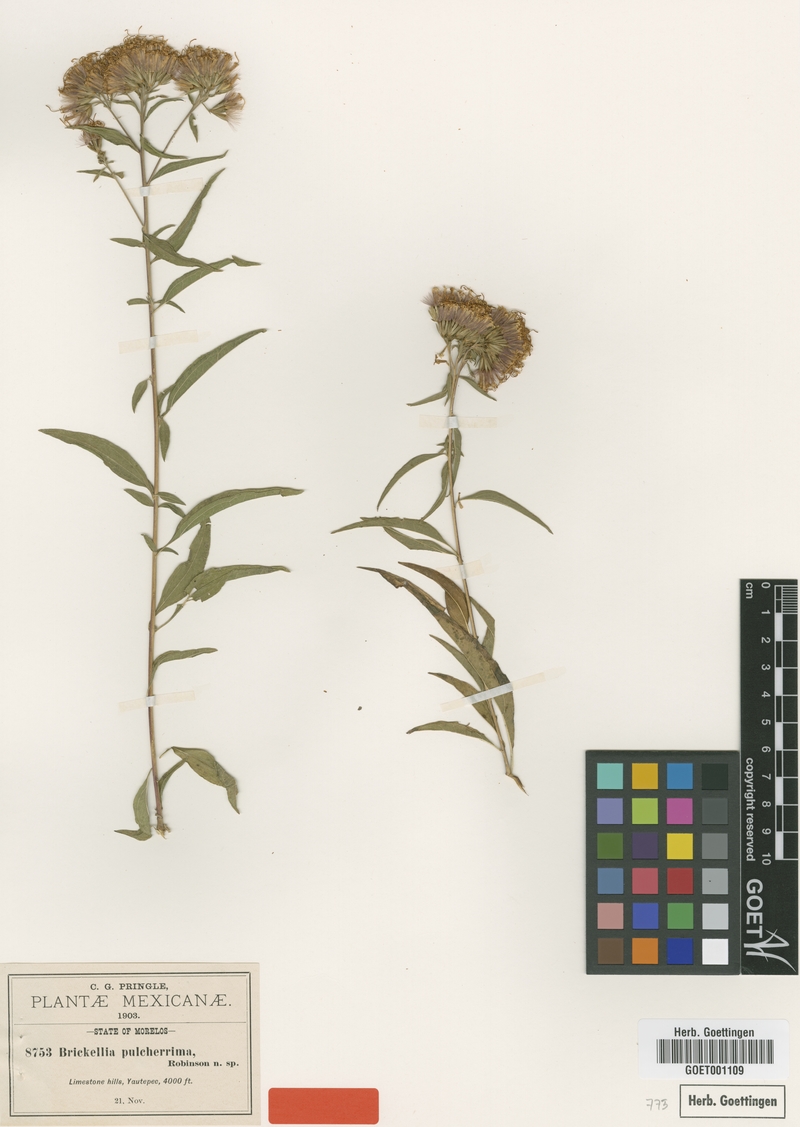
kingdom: Plantae
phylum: Tracheophyta
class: Magnoliopsida
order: Asterales
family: Asteraceae
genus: Steviopsis
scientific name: Steviopsis vigintiseta
